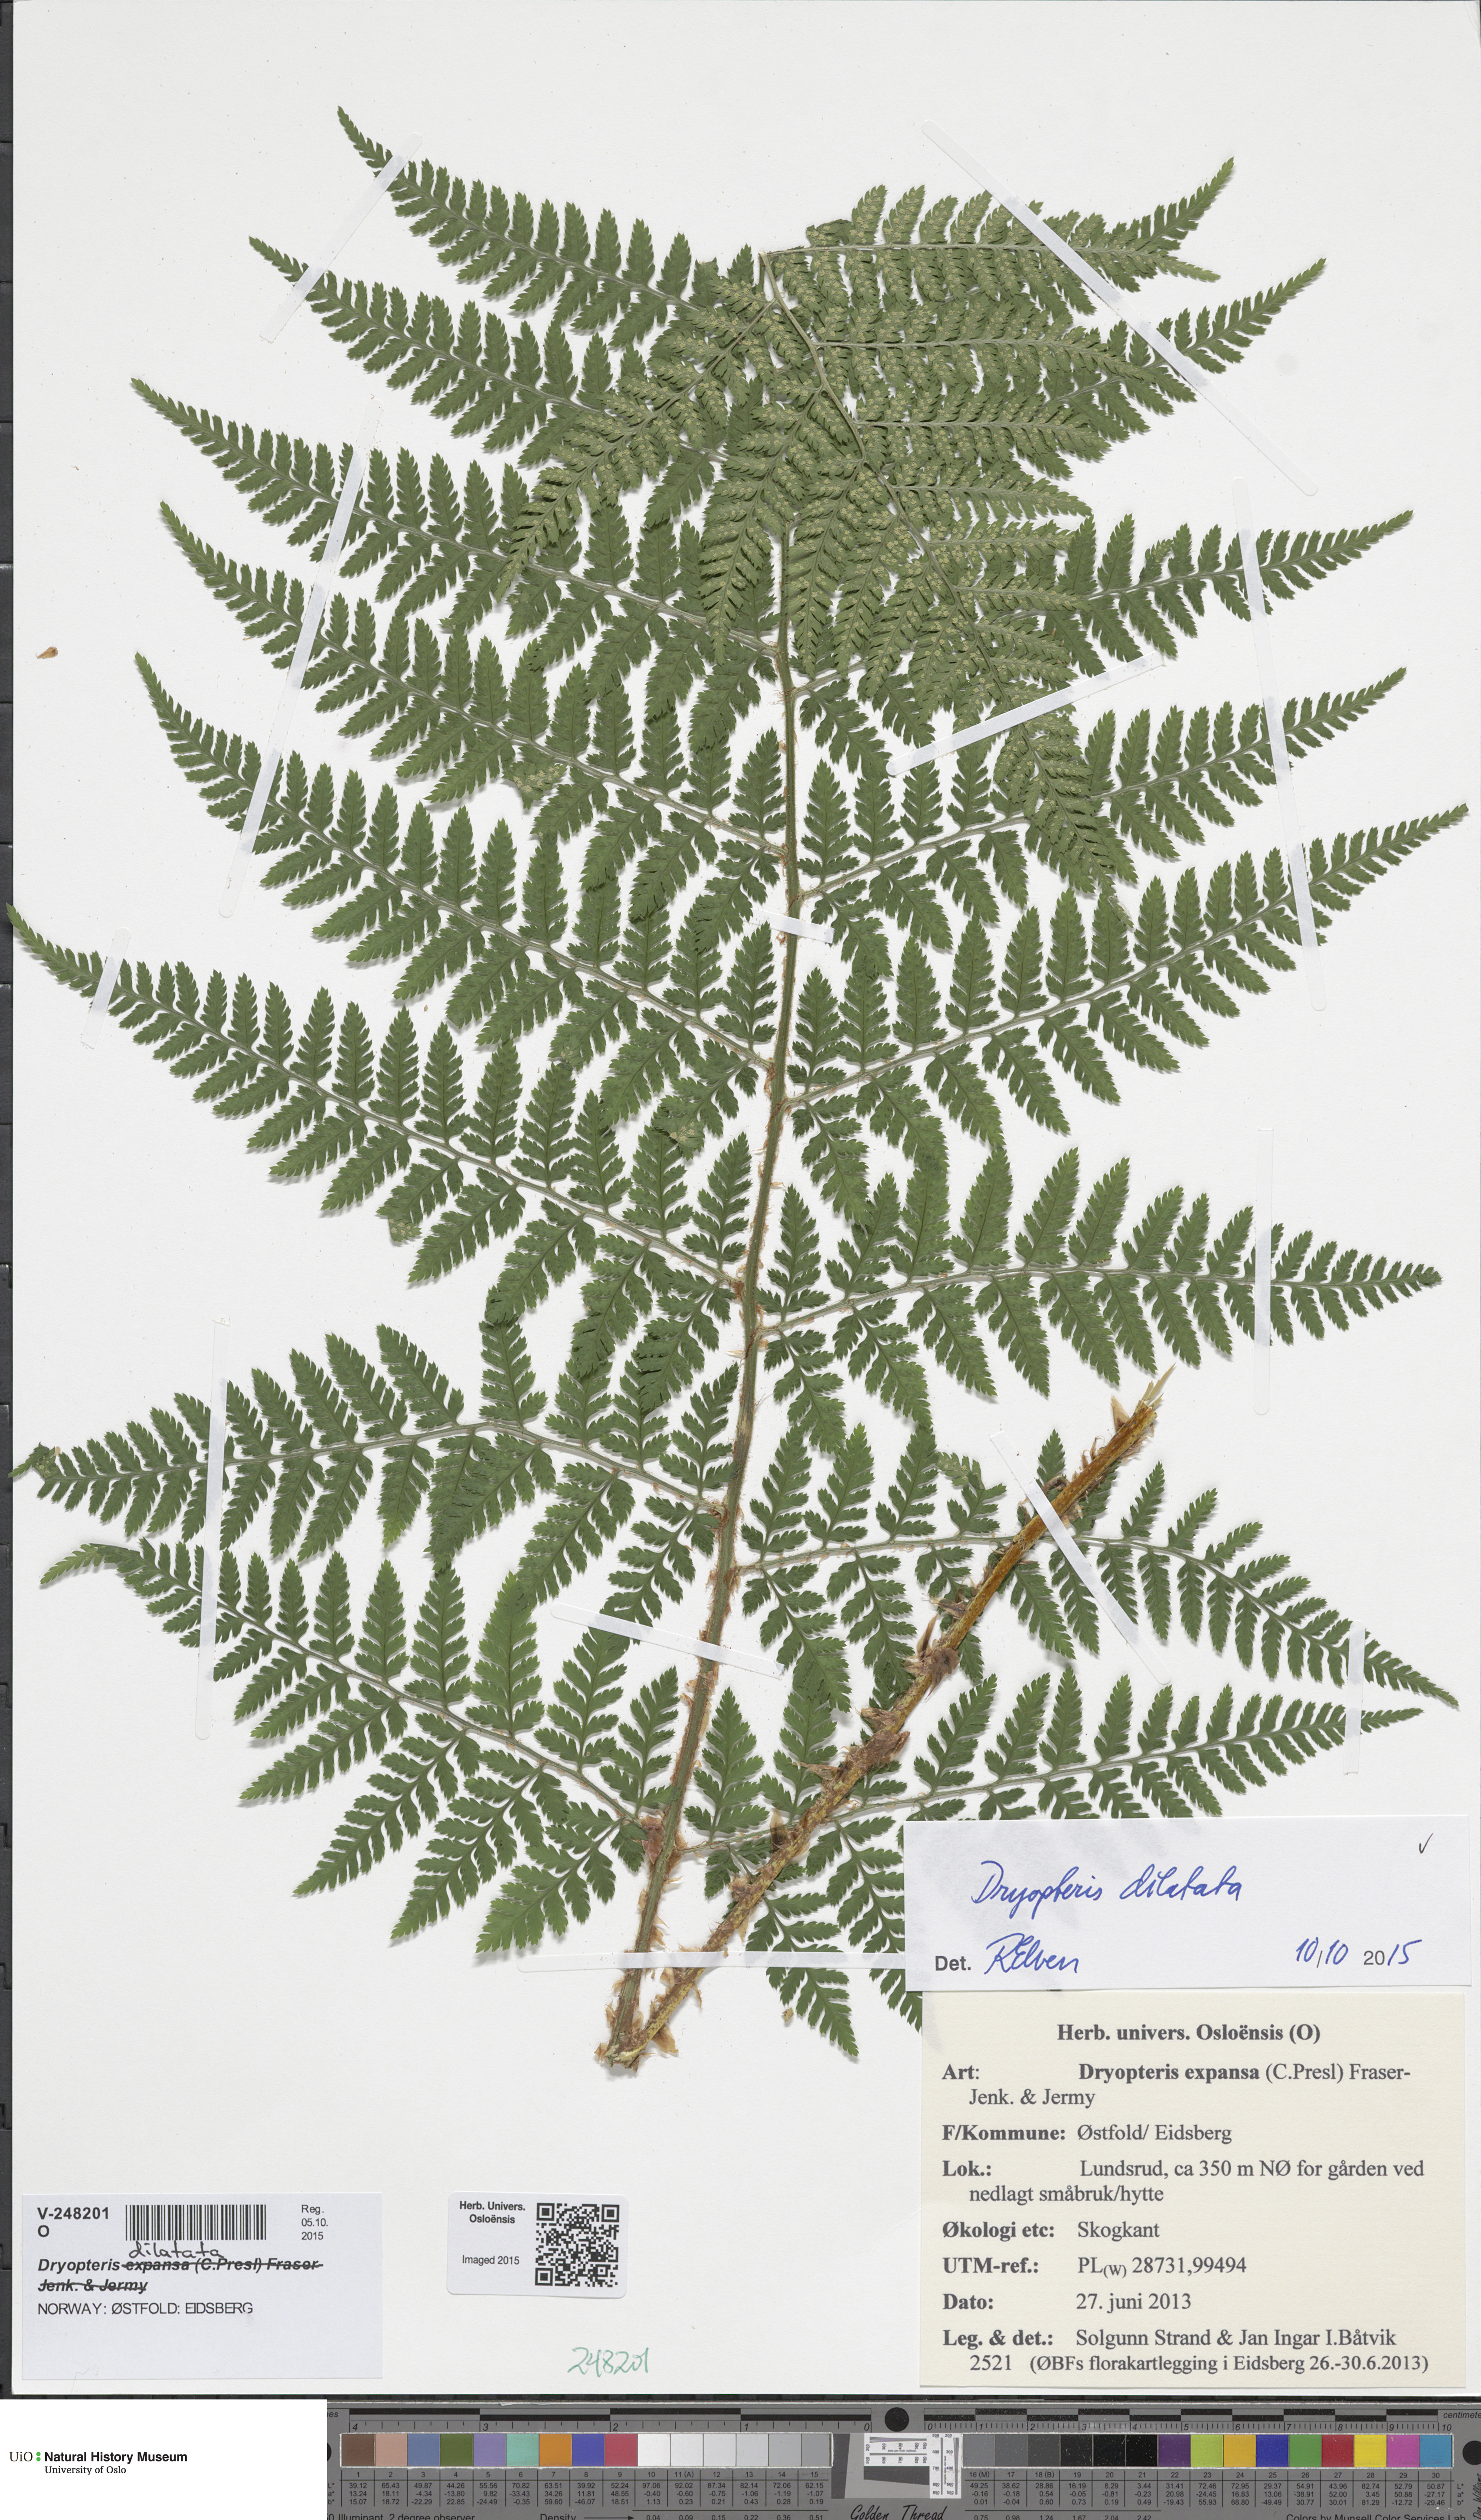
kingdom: Plantae
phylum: Tracheophyta
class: Polypodiopsida
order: Polypodiales
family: Dryopteridaceae
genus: Dryopteris
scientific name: Dryopteris dilatata
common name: Broad buckler-fern
